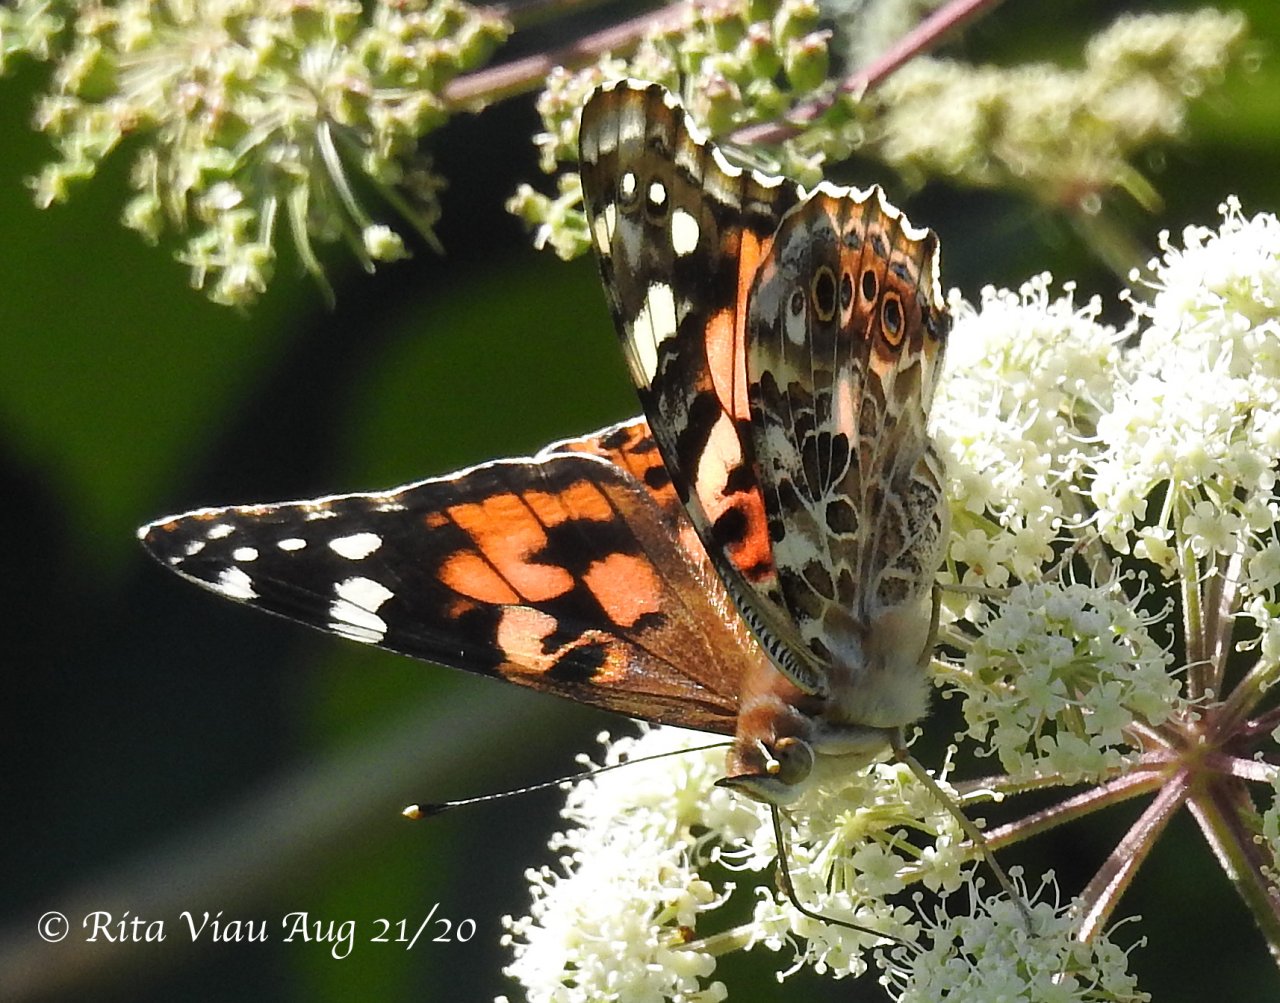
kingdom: Animalia
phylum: Arthropoda
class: Insecta
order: Lepidoptera
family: Nymphalidae
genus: Vanessa
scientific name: Vanessa cardui
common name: Painted Lady
